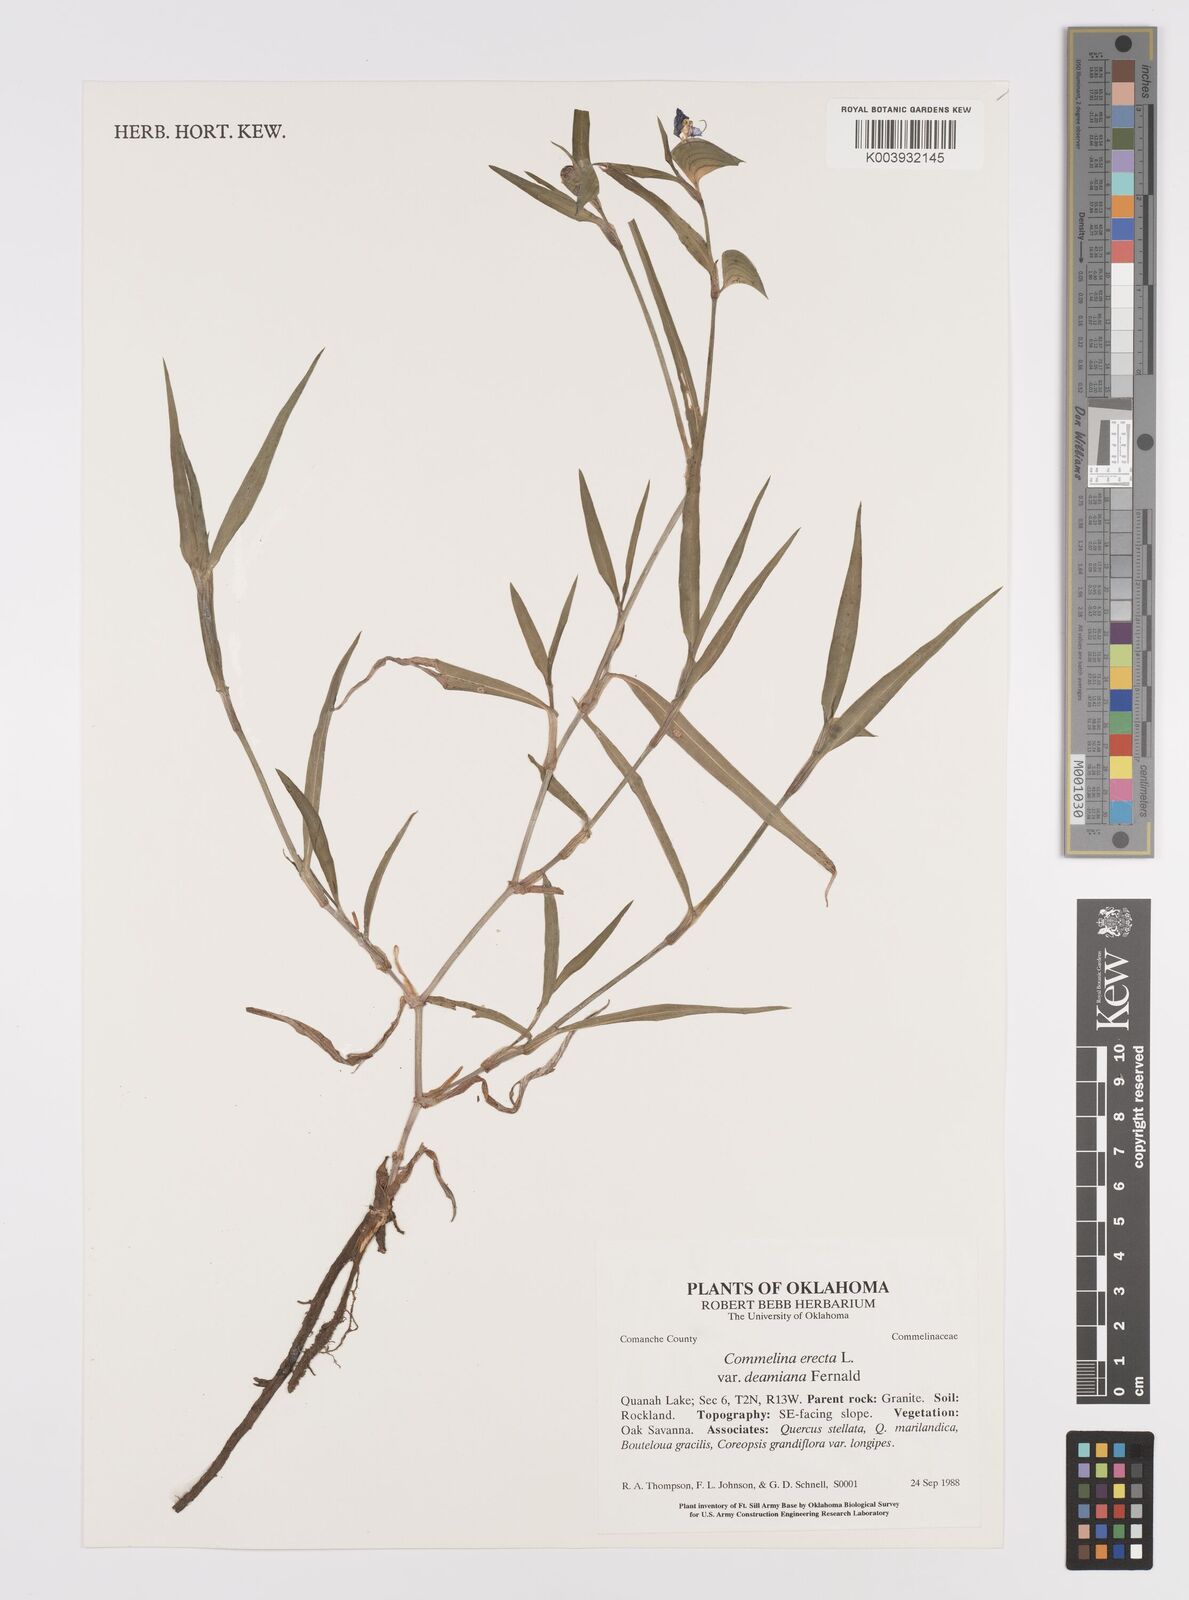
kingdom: Plantae
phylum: Tracheophyta
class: Liliopsida
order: Commelinales
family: Commelinaceae
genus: Commelina
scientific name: Commelina erecta
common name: Blousel blommetjie
